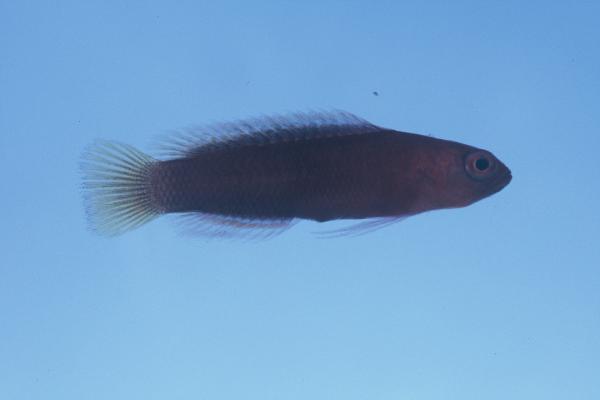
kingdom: Animalia
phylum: Chordata
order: Perciformes
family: Pseudochromidae
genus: Chlidichthys
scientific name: Chlidichthys randalli
